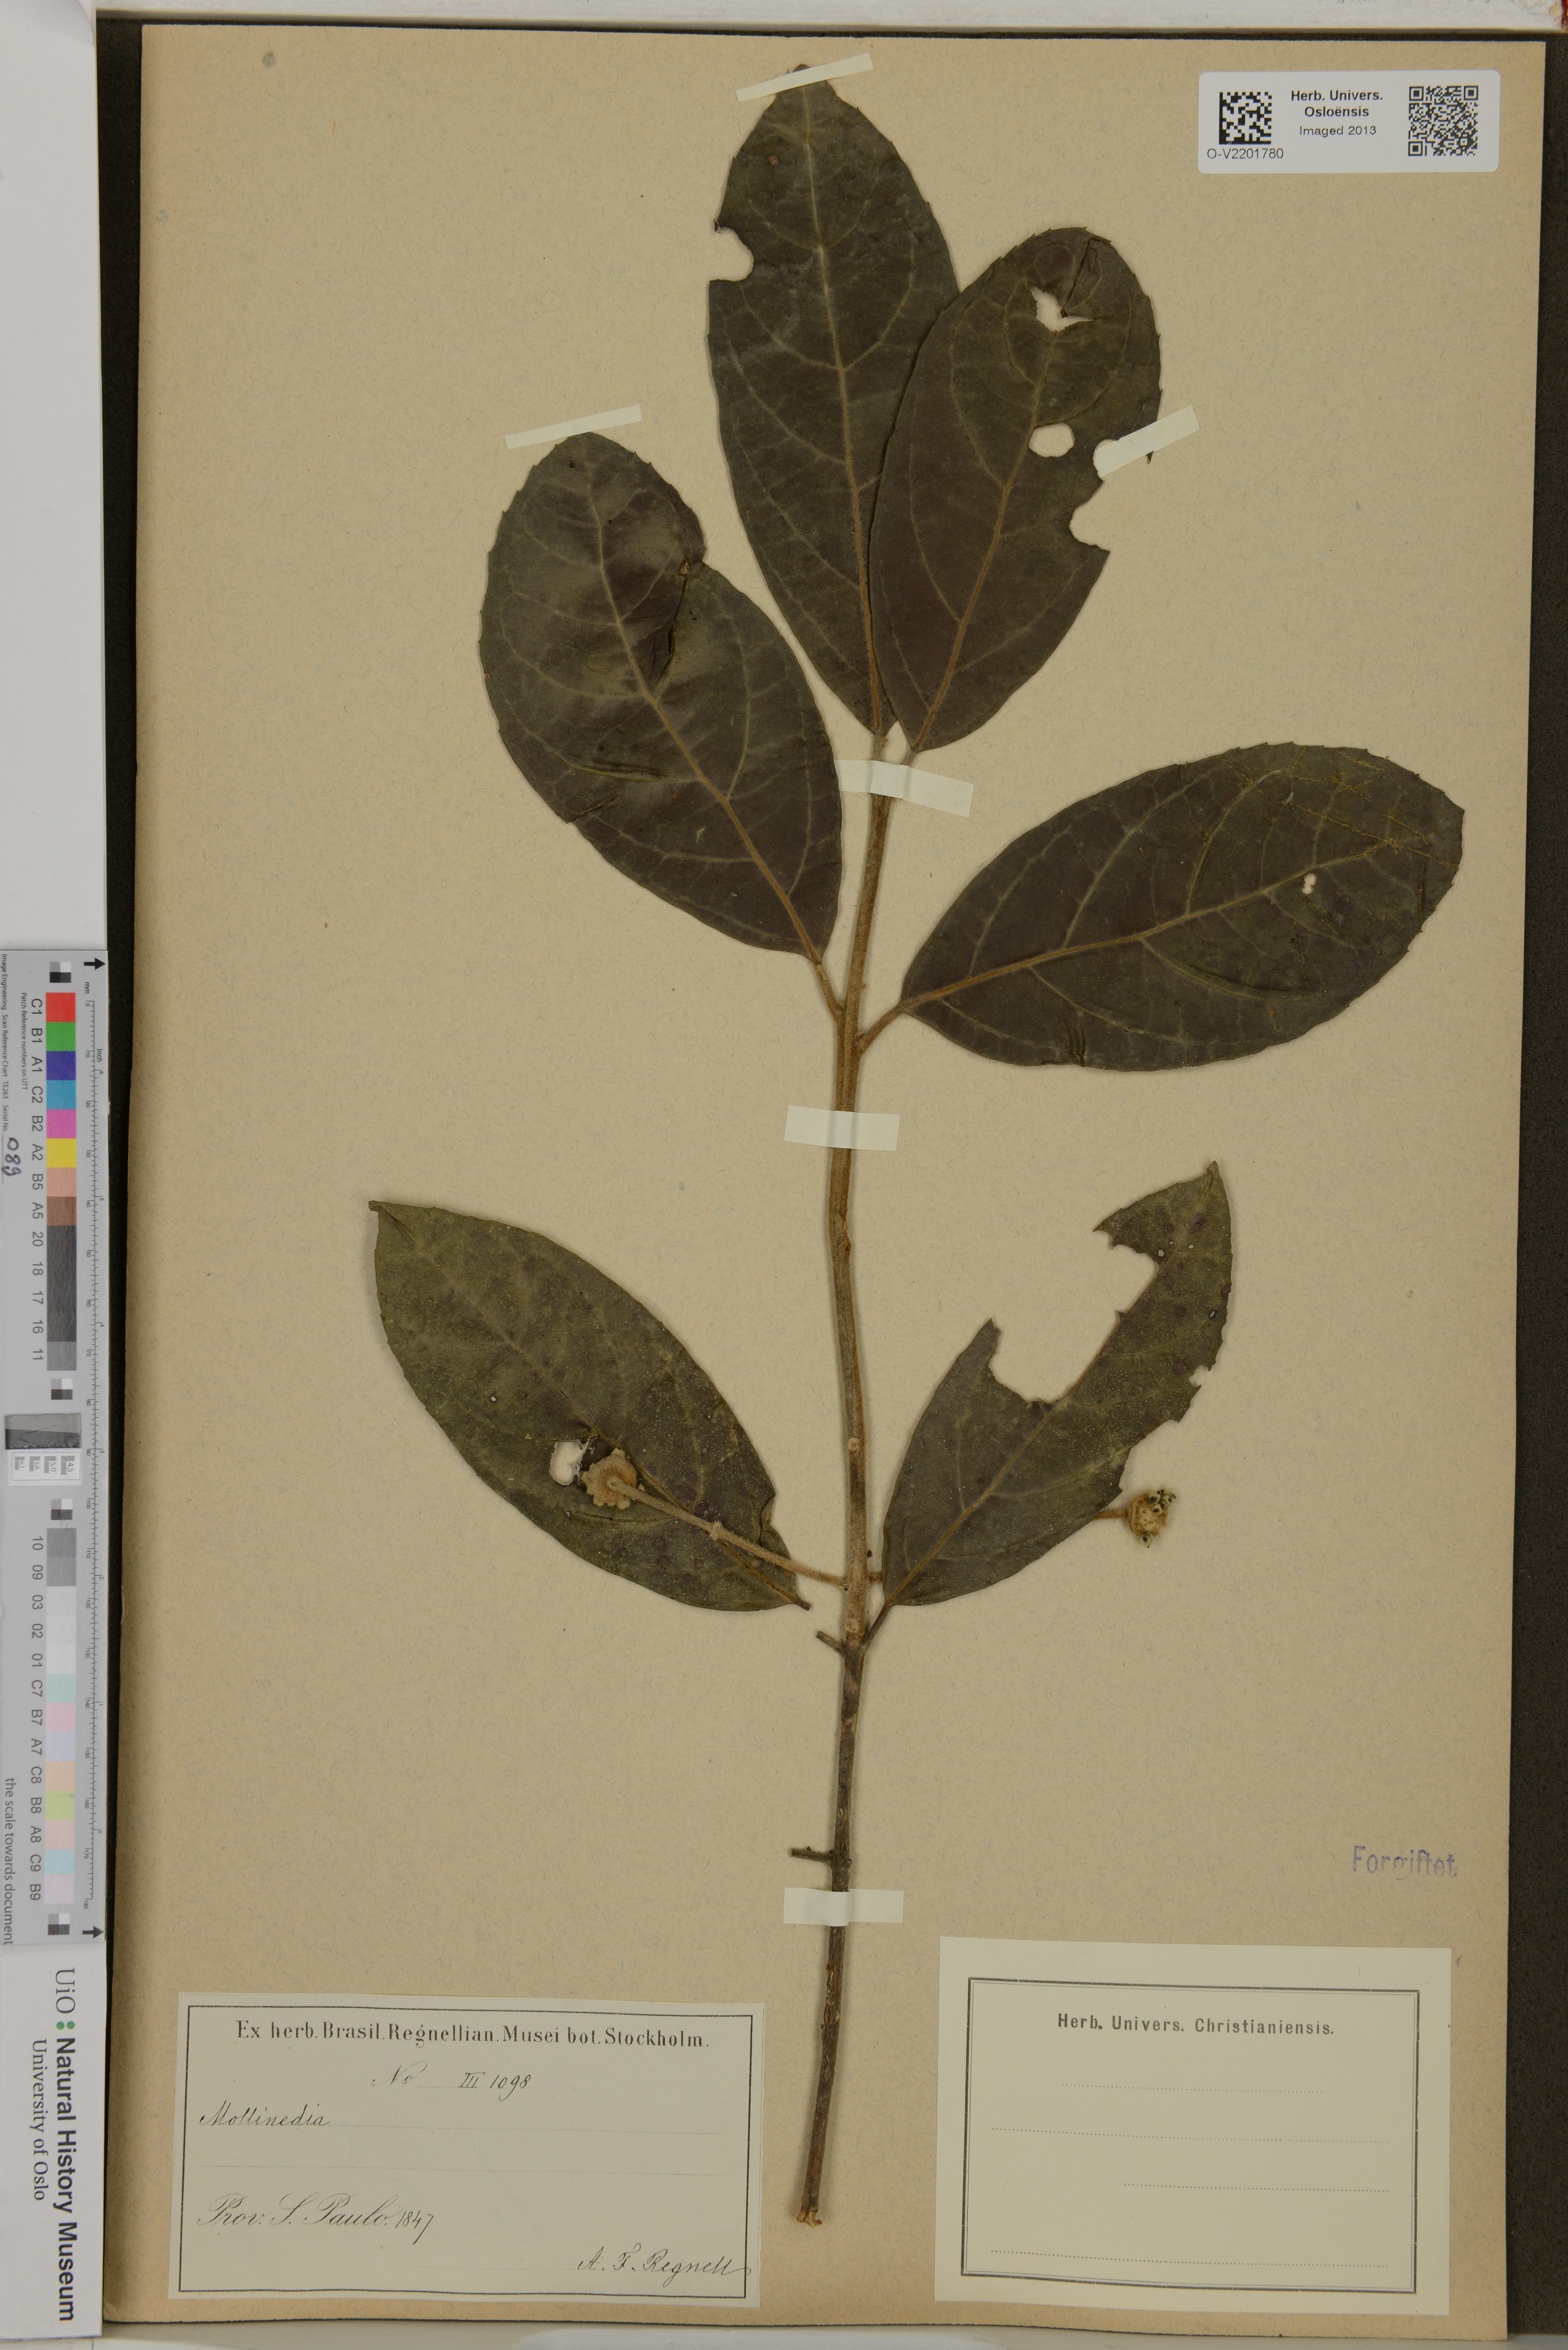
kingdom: Plantae
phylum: Tracheophyta
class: Magnoliopsida
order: Laurales
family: Monimiaceae
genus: Mollinedia
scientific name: Mollinedia
